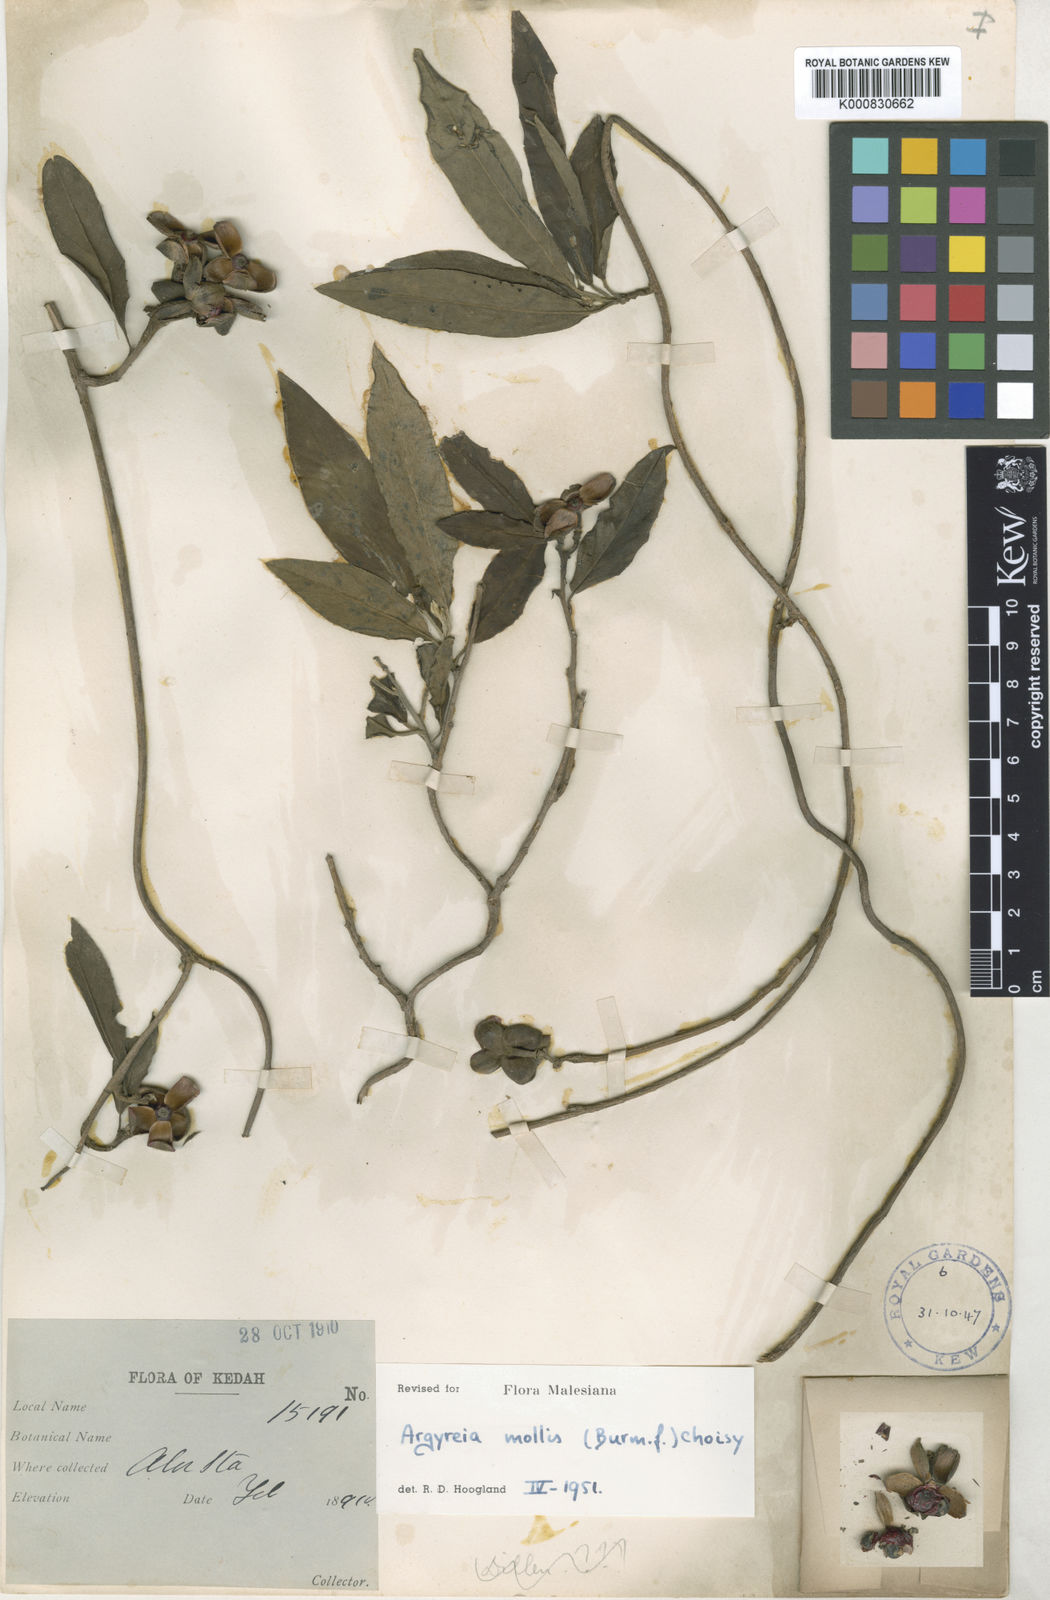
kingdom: Plantae
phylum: Tracheophyta
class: Magnoliopsida
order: Solanales
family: Convolvulaceae
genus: Argyreia
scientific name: Argyreia mollis
